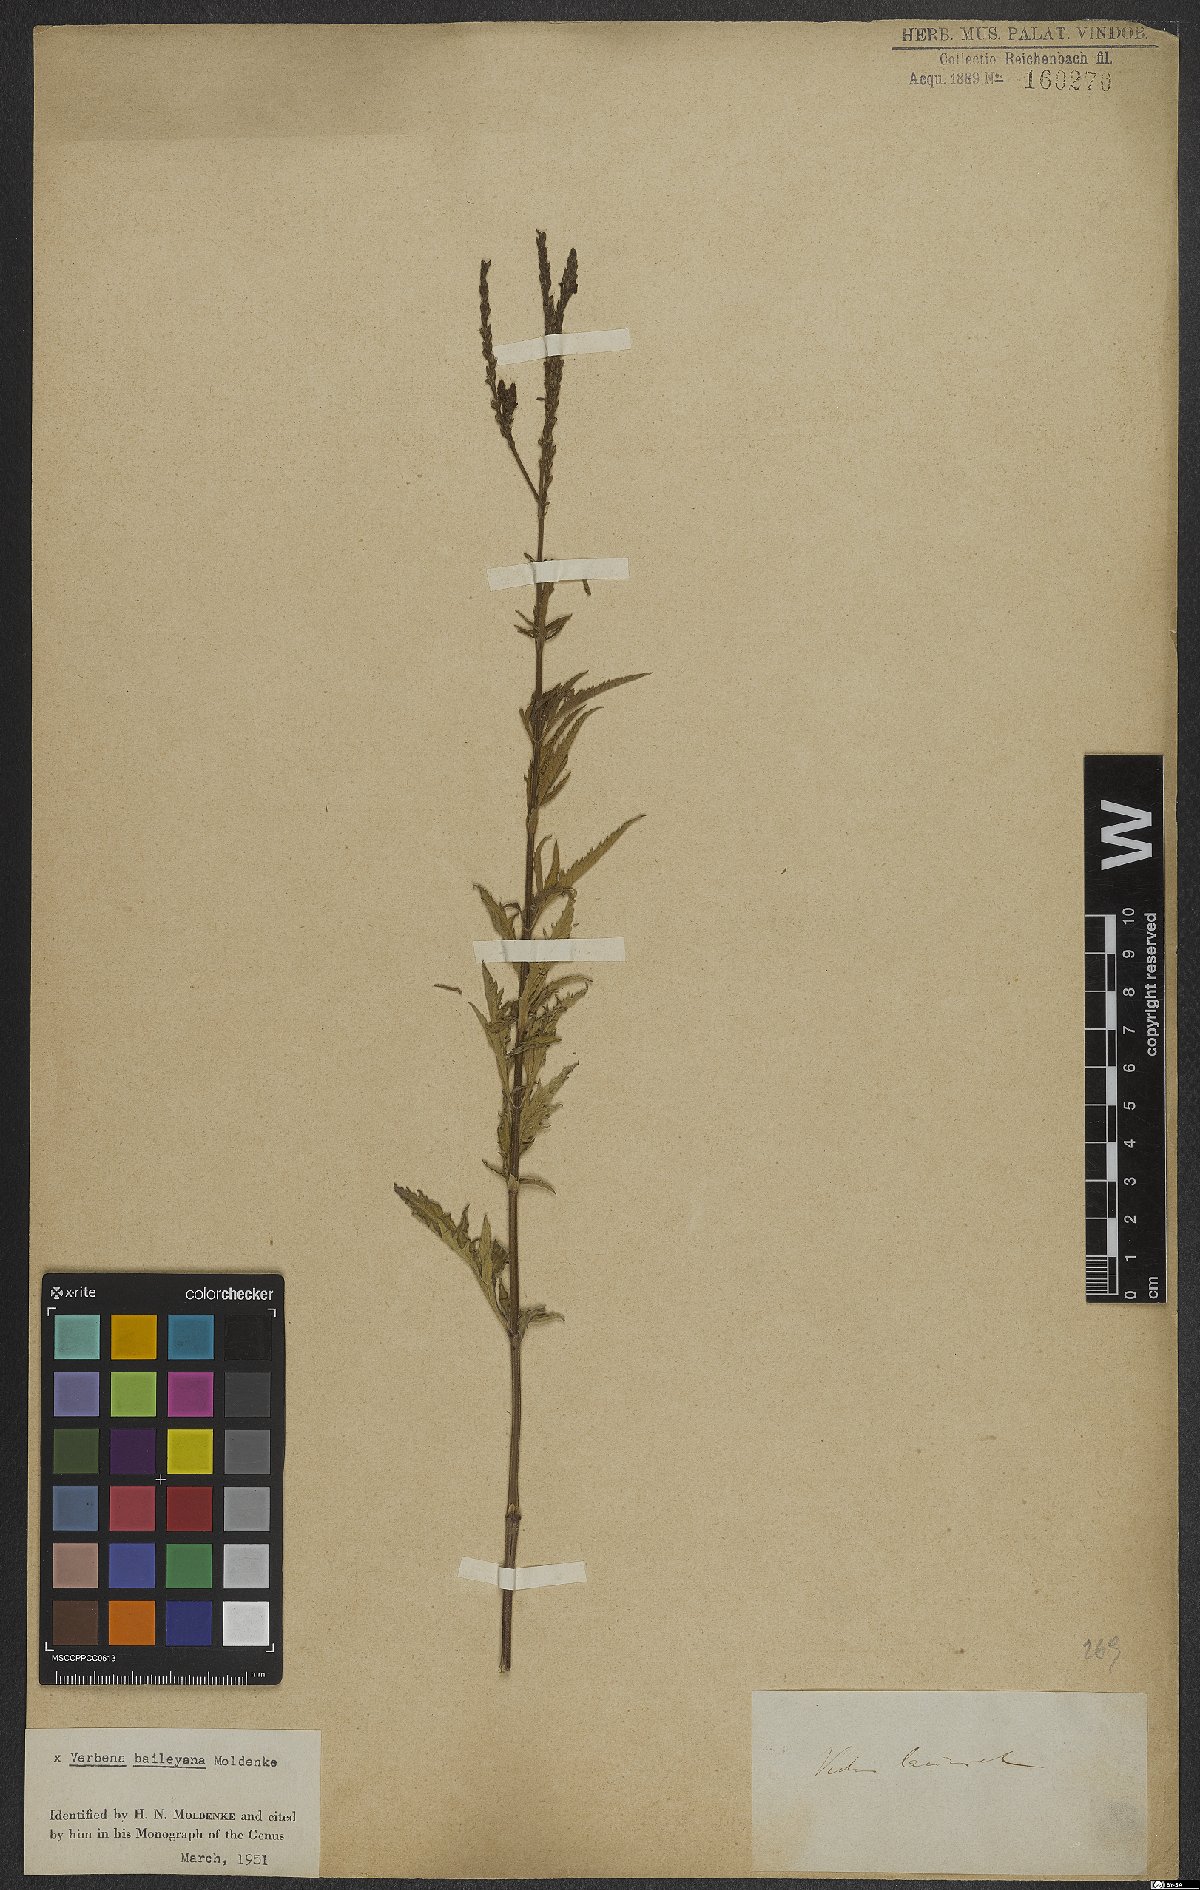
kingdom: Plantae
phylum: Tracheophyta
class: Magnoliopsida
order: Lamiales
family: Verbenaceae
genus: Verbena
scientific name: Verbena baileyana
